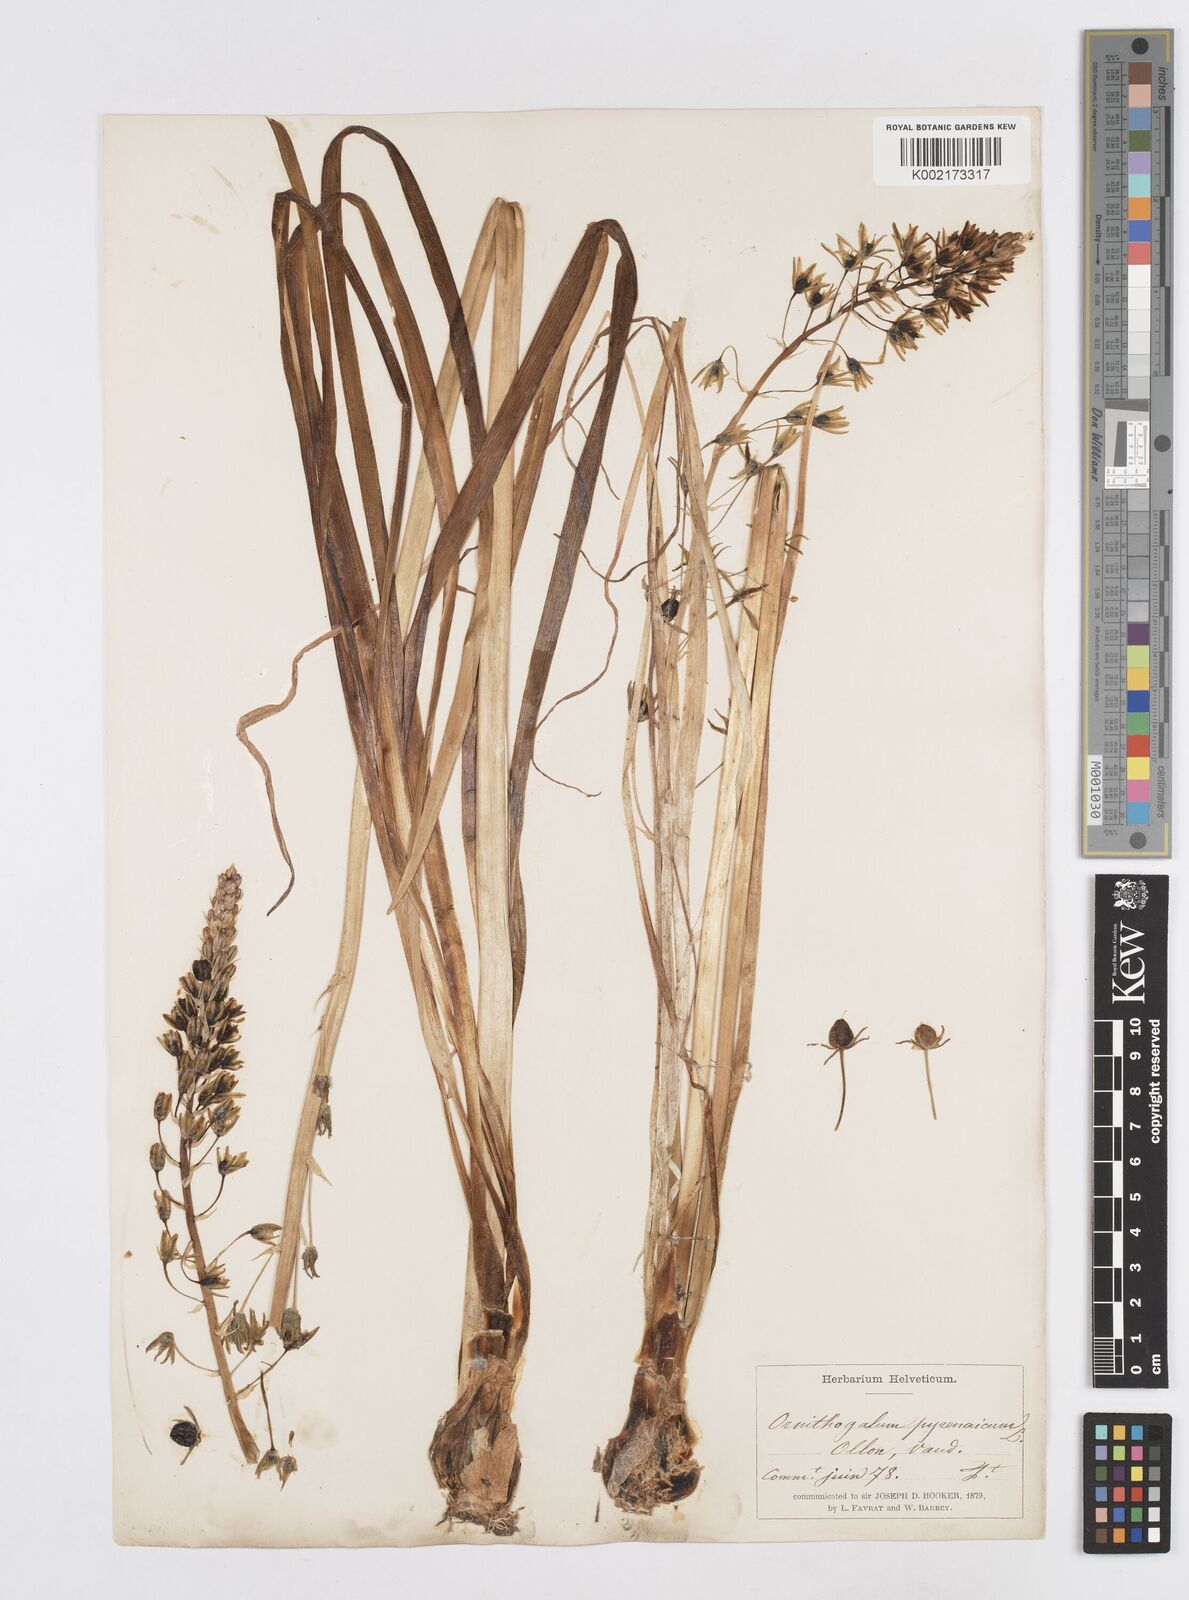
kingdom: Plantae
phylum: Tracheophyta
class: Liliopsida
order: Asparagales
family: Asparagaceae
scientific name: Asparagaceae
